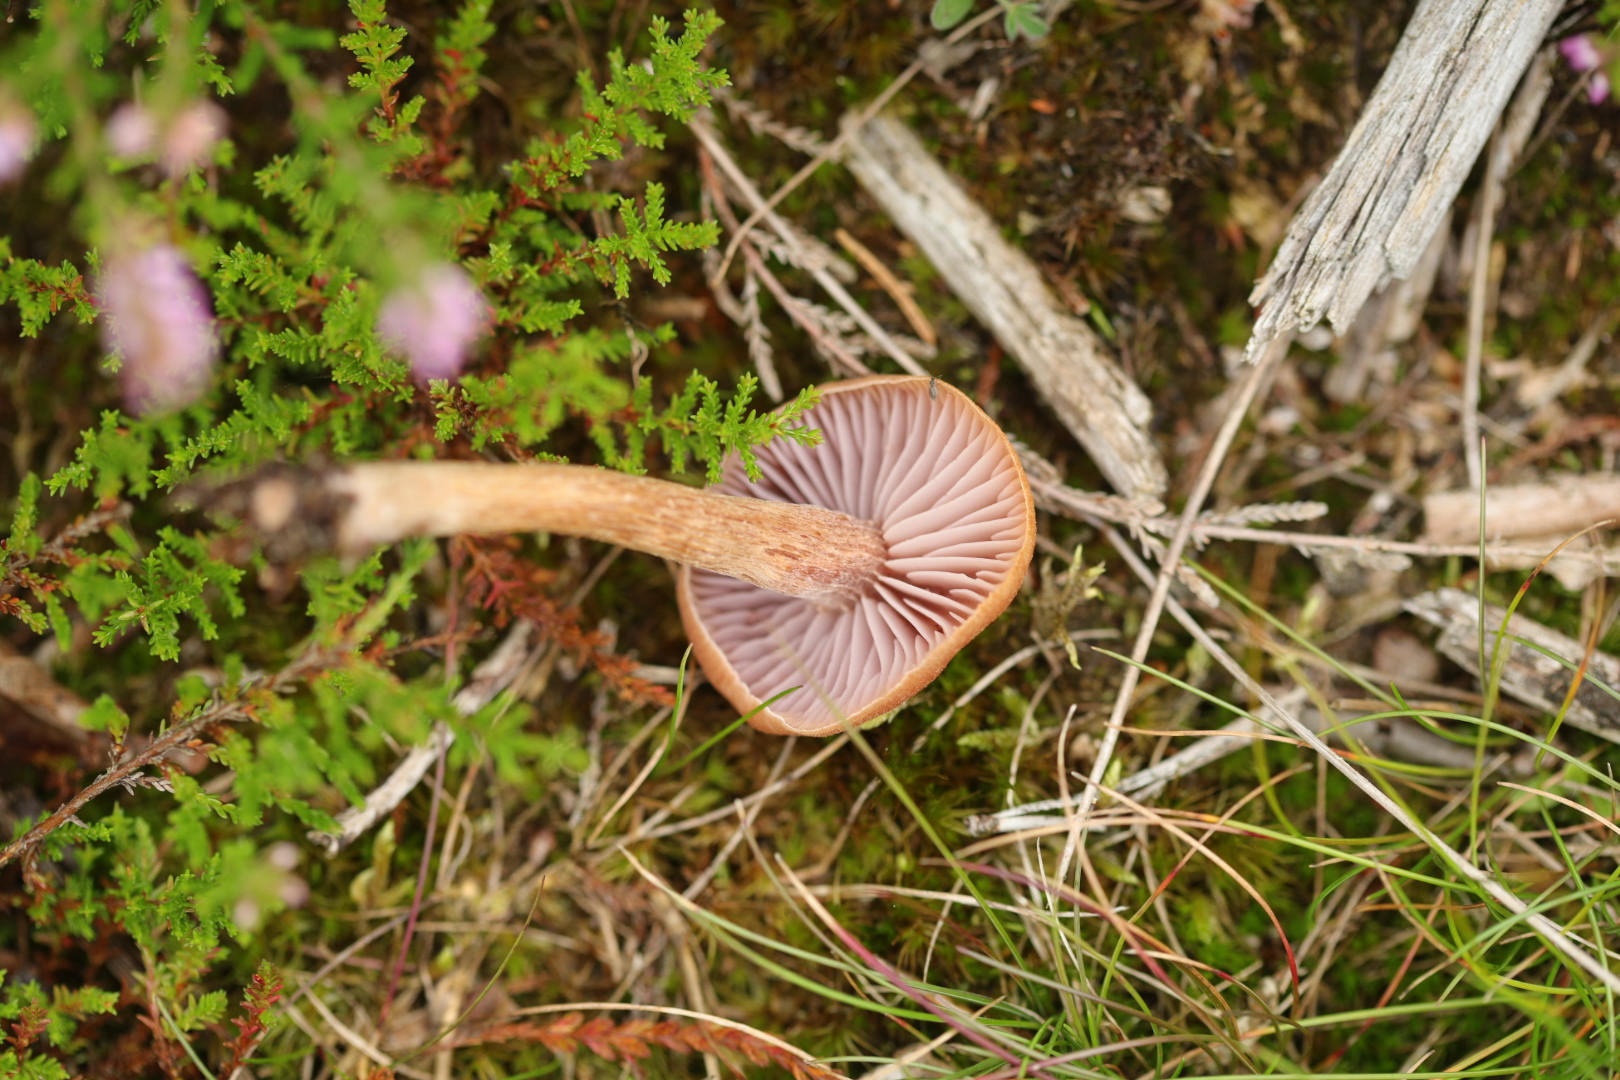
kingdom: Fungi
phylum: Basidiomycota
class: Agaricomycetes
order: Agaricales
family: Hydnangiaceae
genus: Laccaria
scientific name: Laccaria laccata
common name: rød ametysthat
